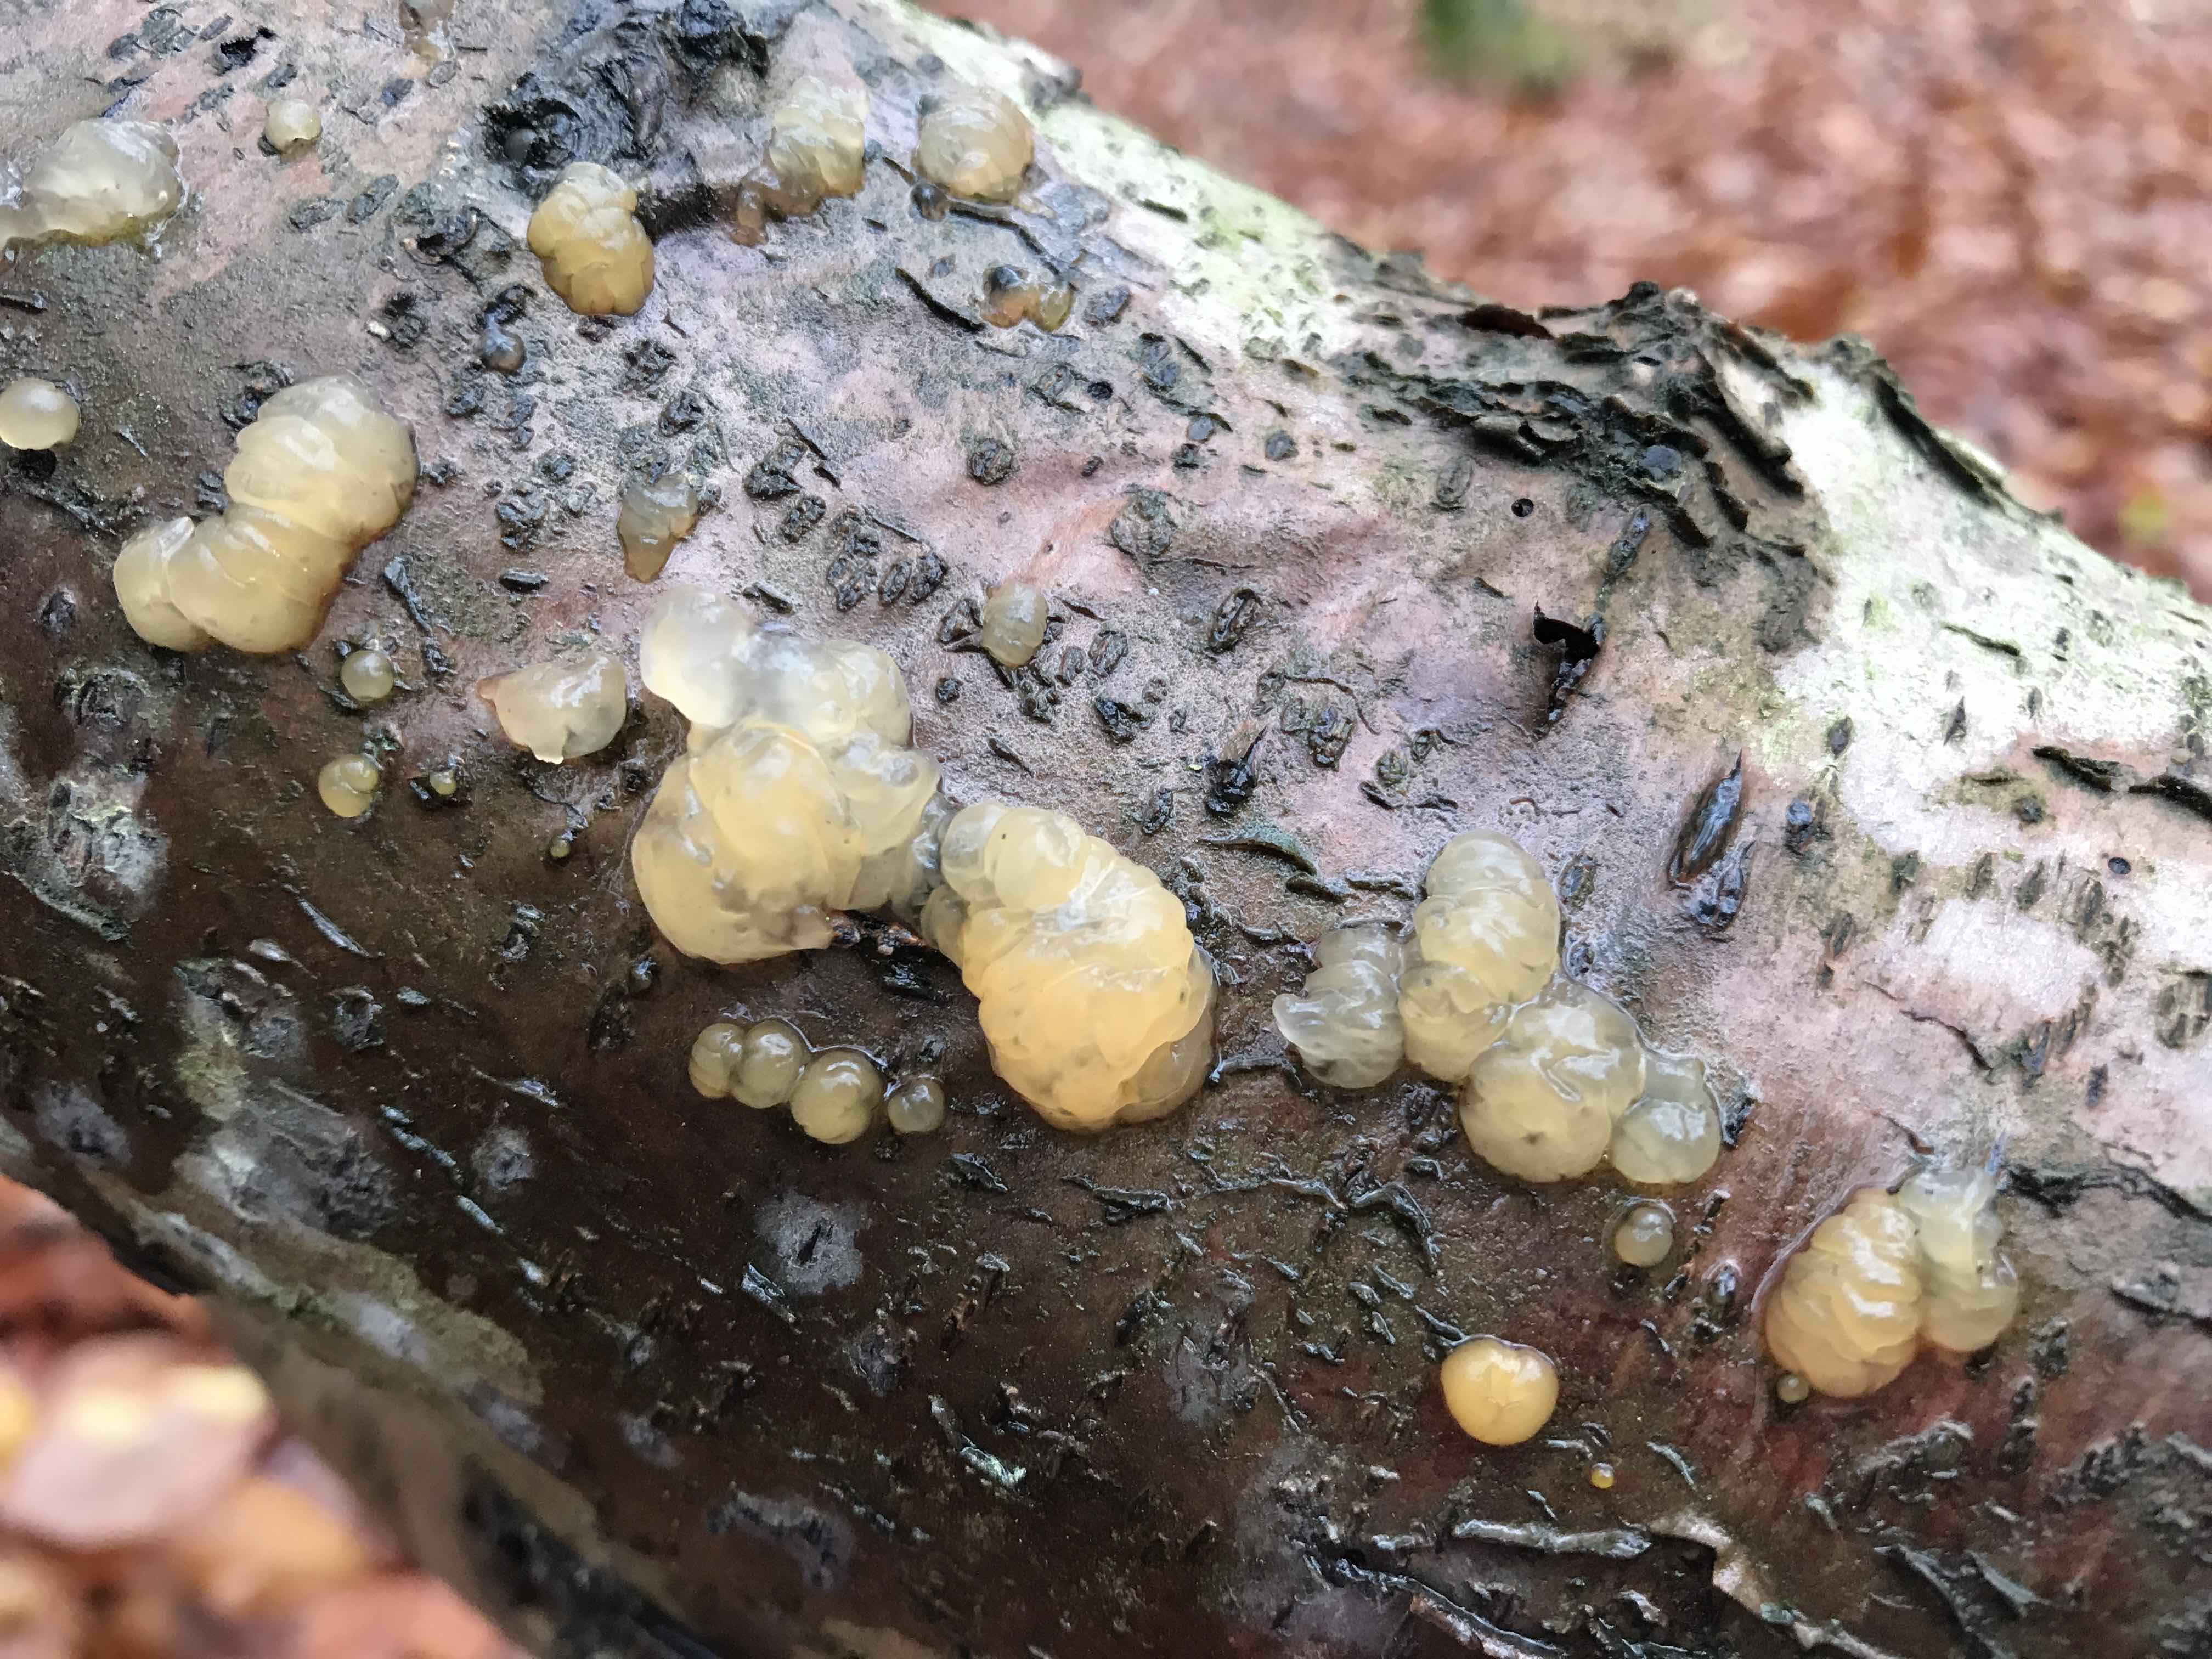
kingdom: Fungi
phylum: Basidiomycota
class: Dacrymycetes
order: Dacrymycetales
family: Dacrymycetaceae
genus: Dacrymyces
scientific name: Dacrymyces lacrymalis
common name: rynket tåresvamp
